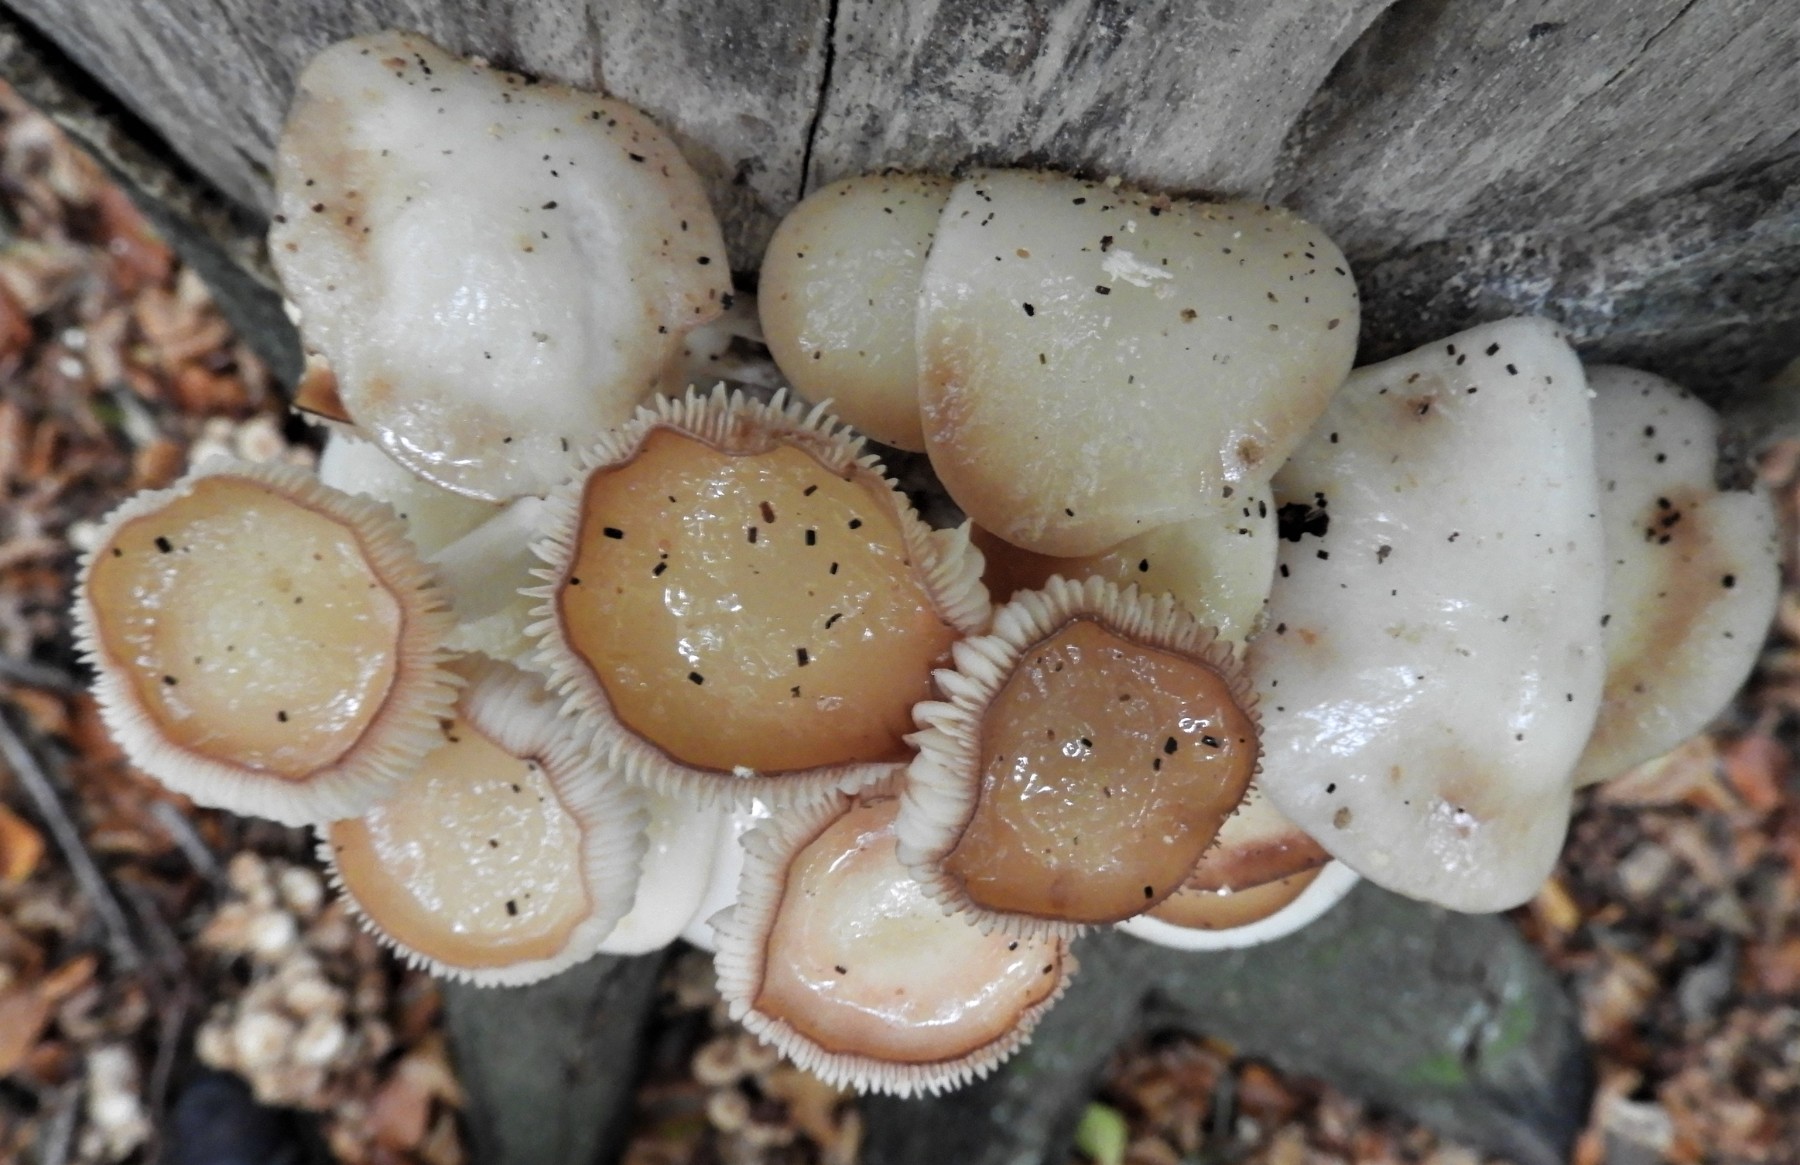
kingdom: Fungi
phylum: Basidiomycota
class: Agaricomycetes
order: Agaricales
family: Physalacriaceae
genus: Mucidula
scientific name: Mucidula mucida
